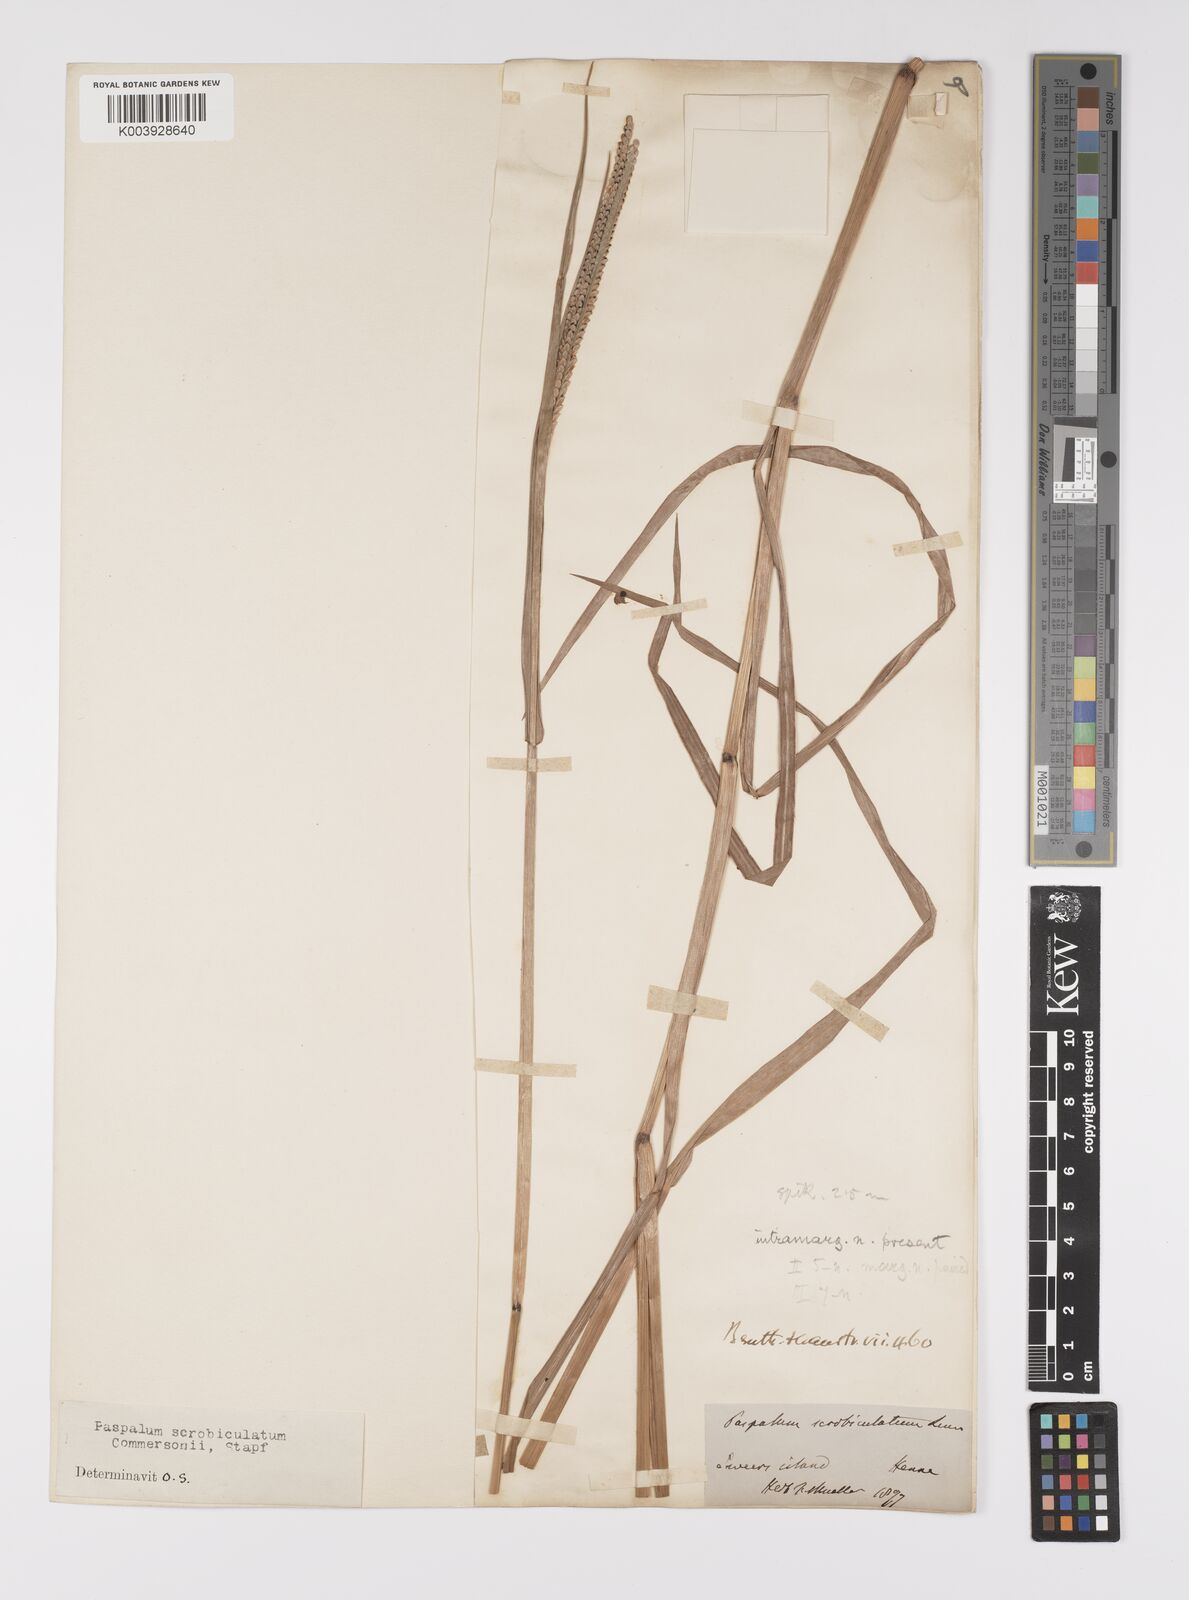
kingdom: Plantae
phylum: Tracheophyta
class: Liliopsida
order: Poales
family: Poaceae
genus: Paspalum
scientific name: Paspalum scrobiculatum
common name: Kodo millet
